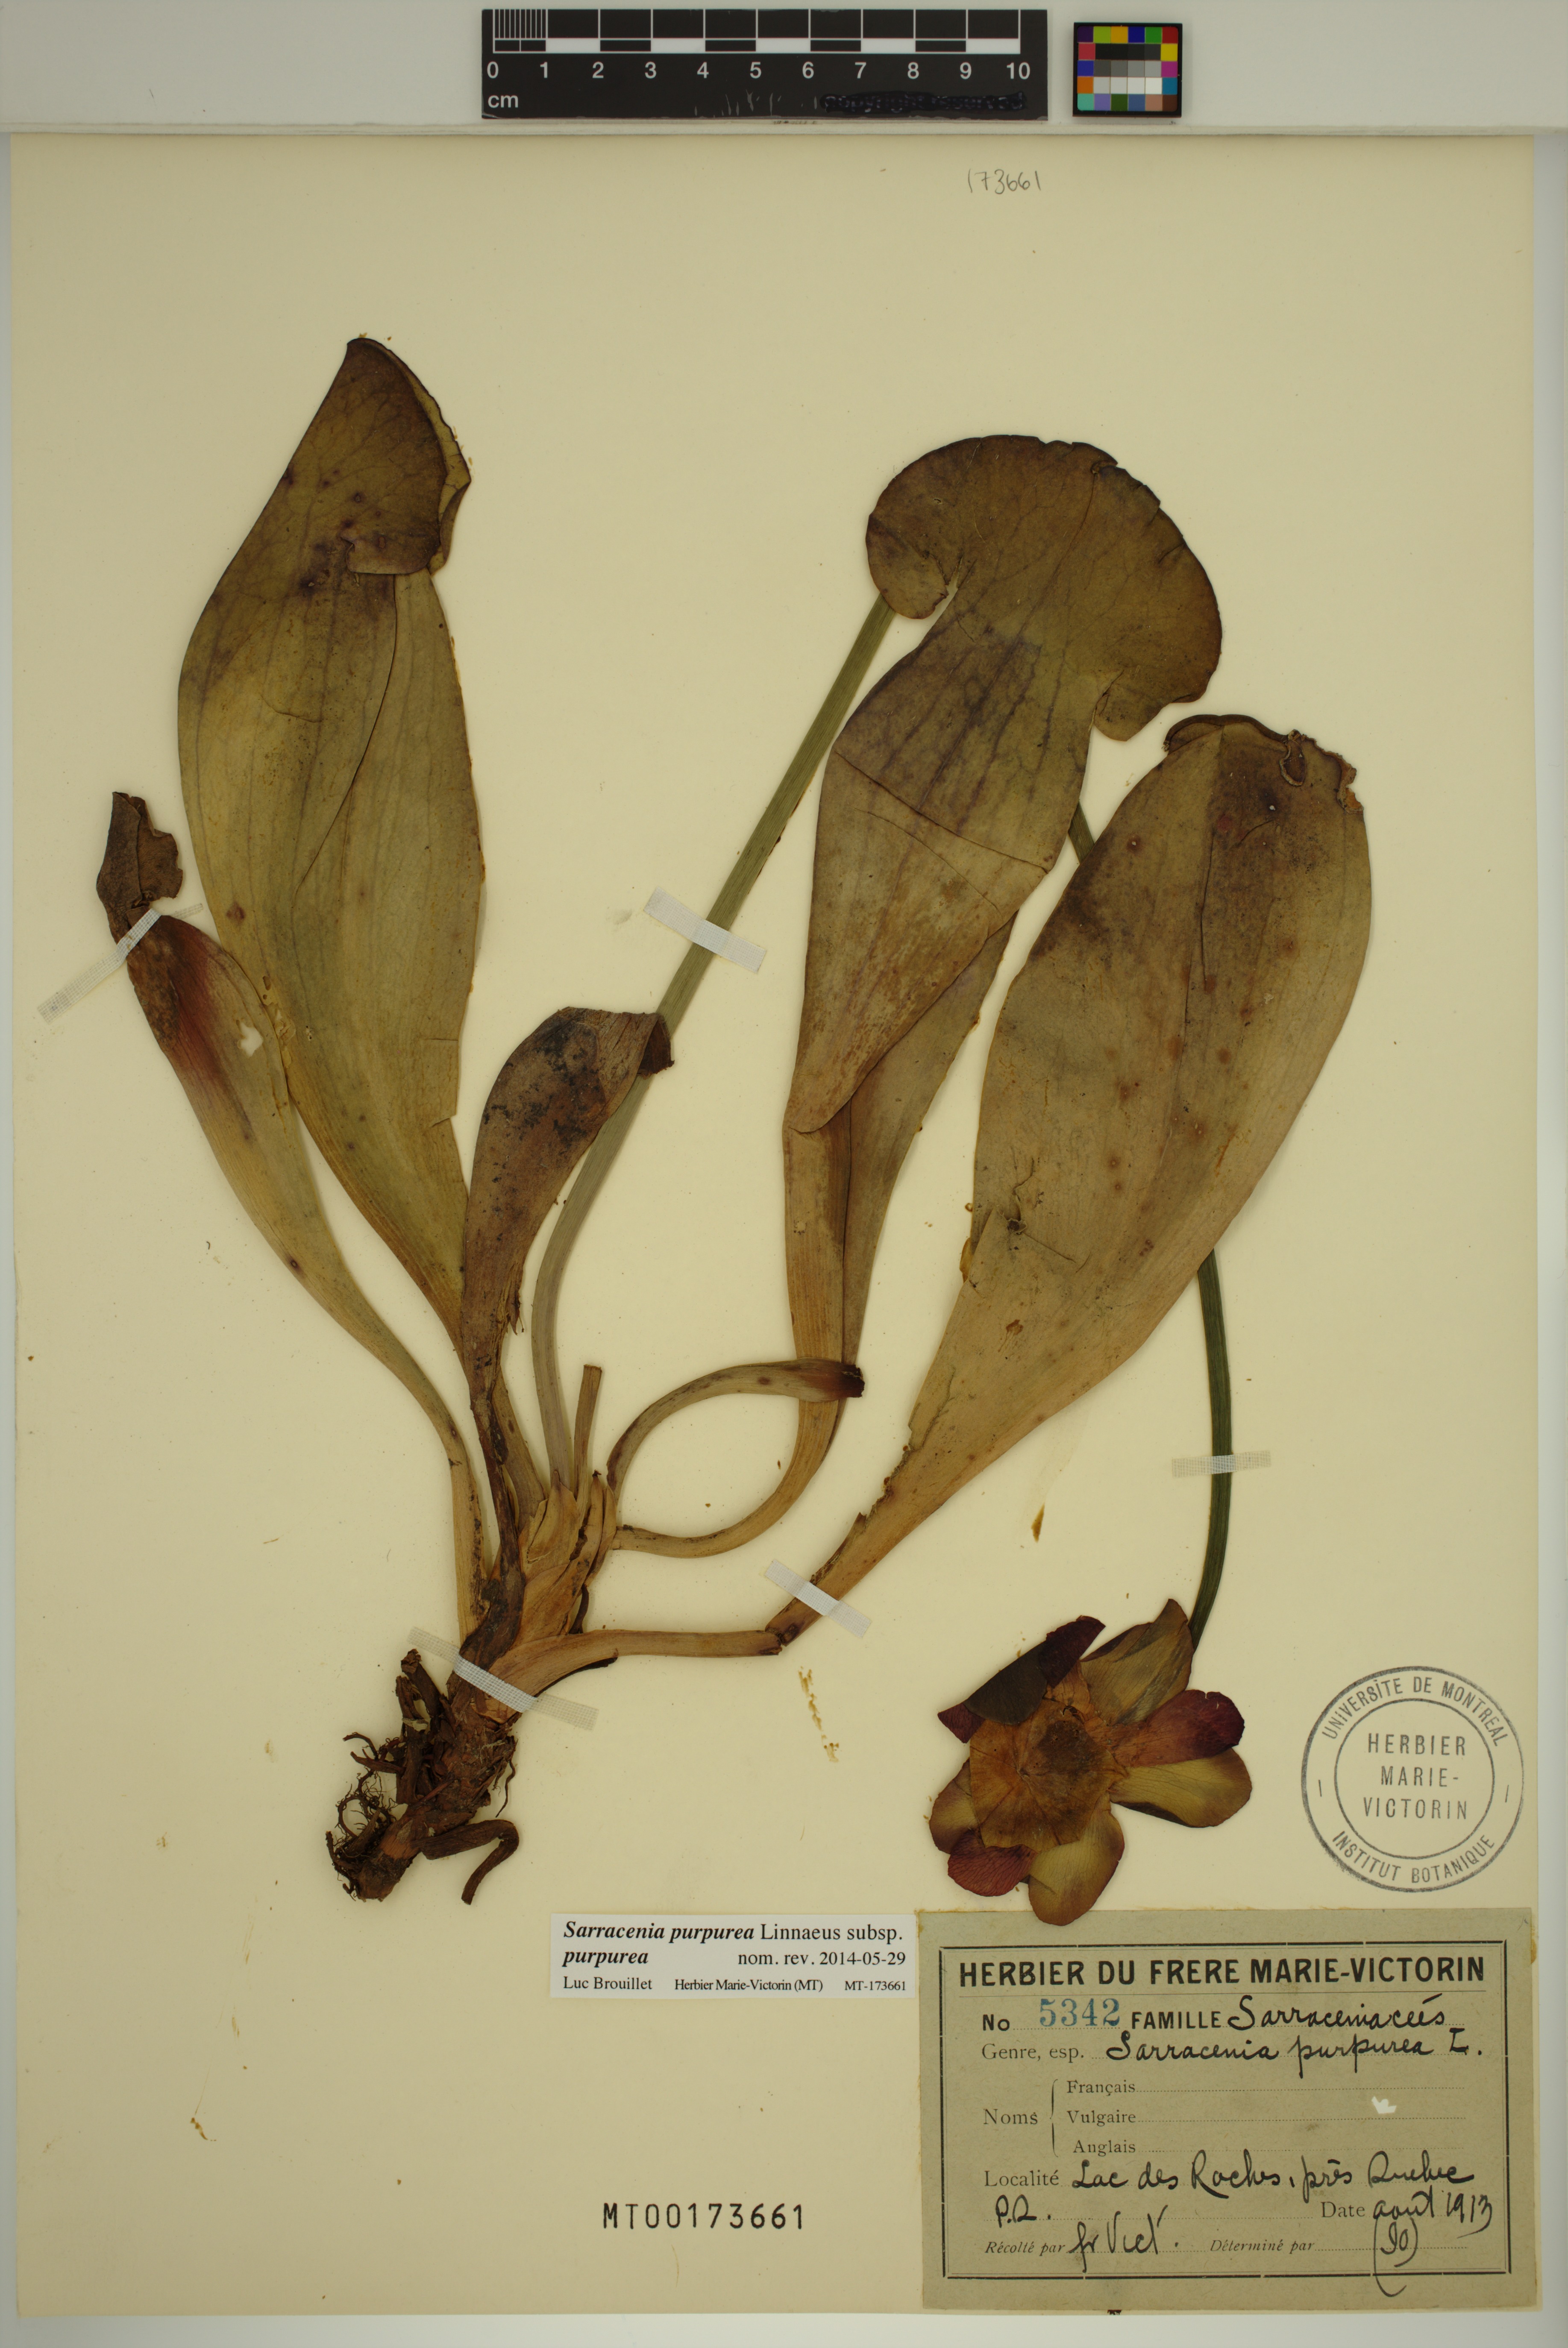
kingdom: Plantae
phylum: Tracheophyta
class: Magnoliopsida
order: Ericales
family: Sarraceniaceae
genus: Sarracenia
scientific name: Sarracenia purpurea
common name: Pitcherplant
